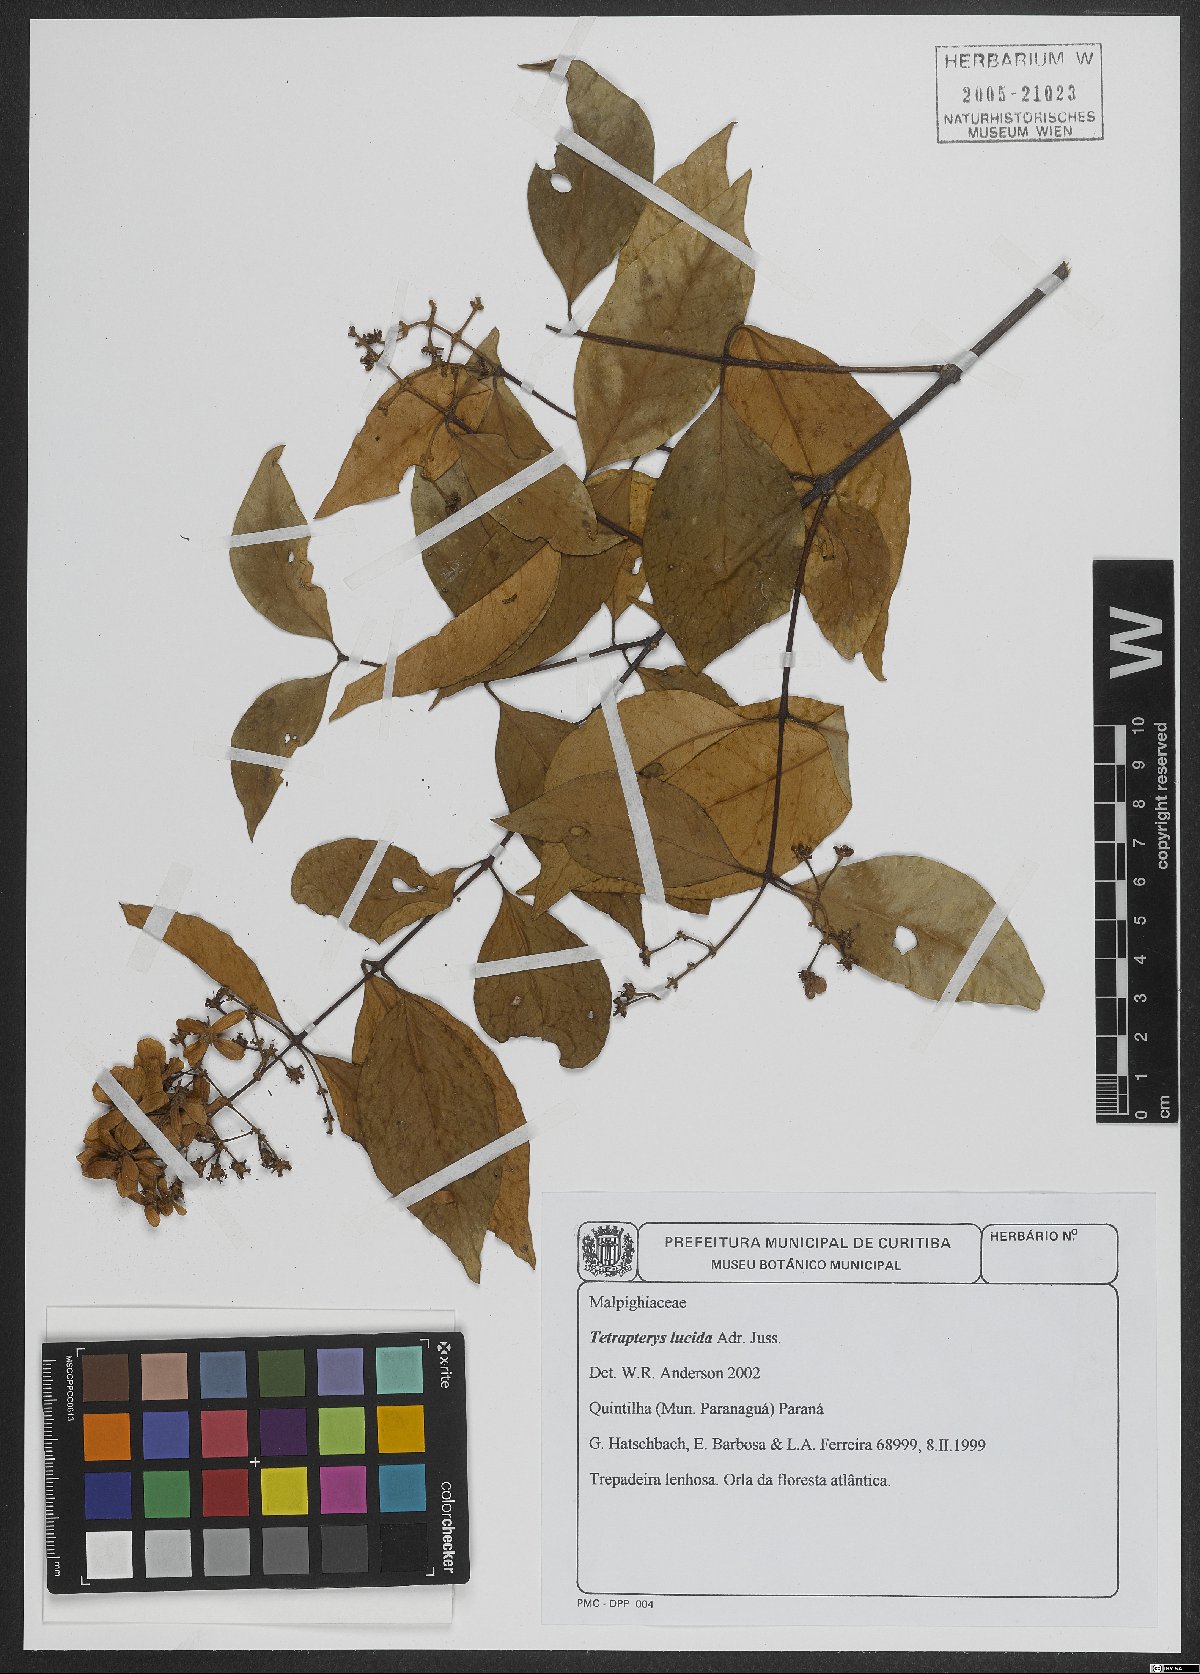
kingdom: Plantae
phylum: Tracheophyta
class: Magnoliopsida
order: Malpighiales
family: Malpighiaceae
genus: Niedenzuella
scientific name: Niedenzuella lucida
